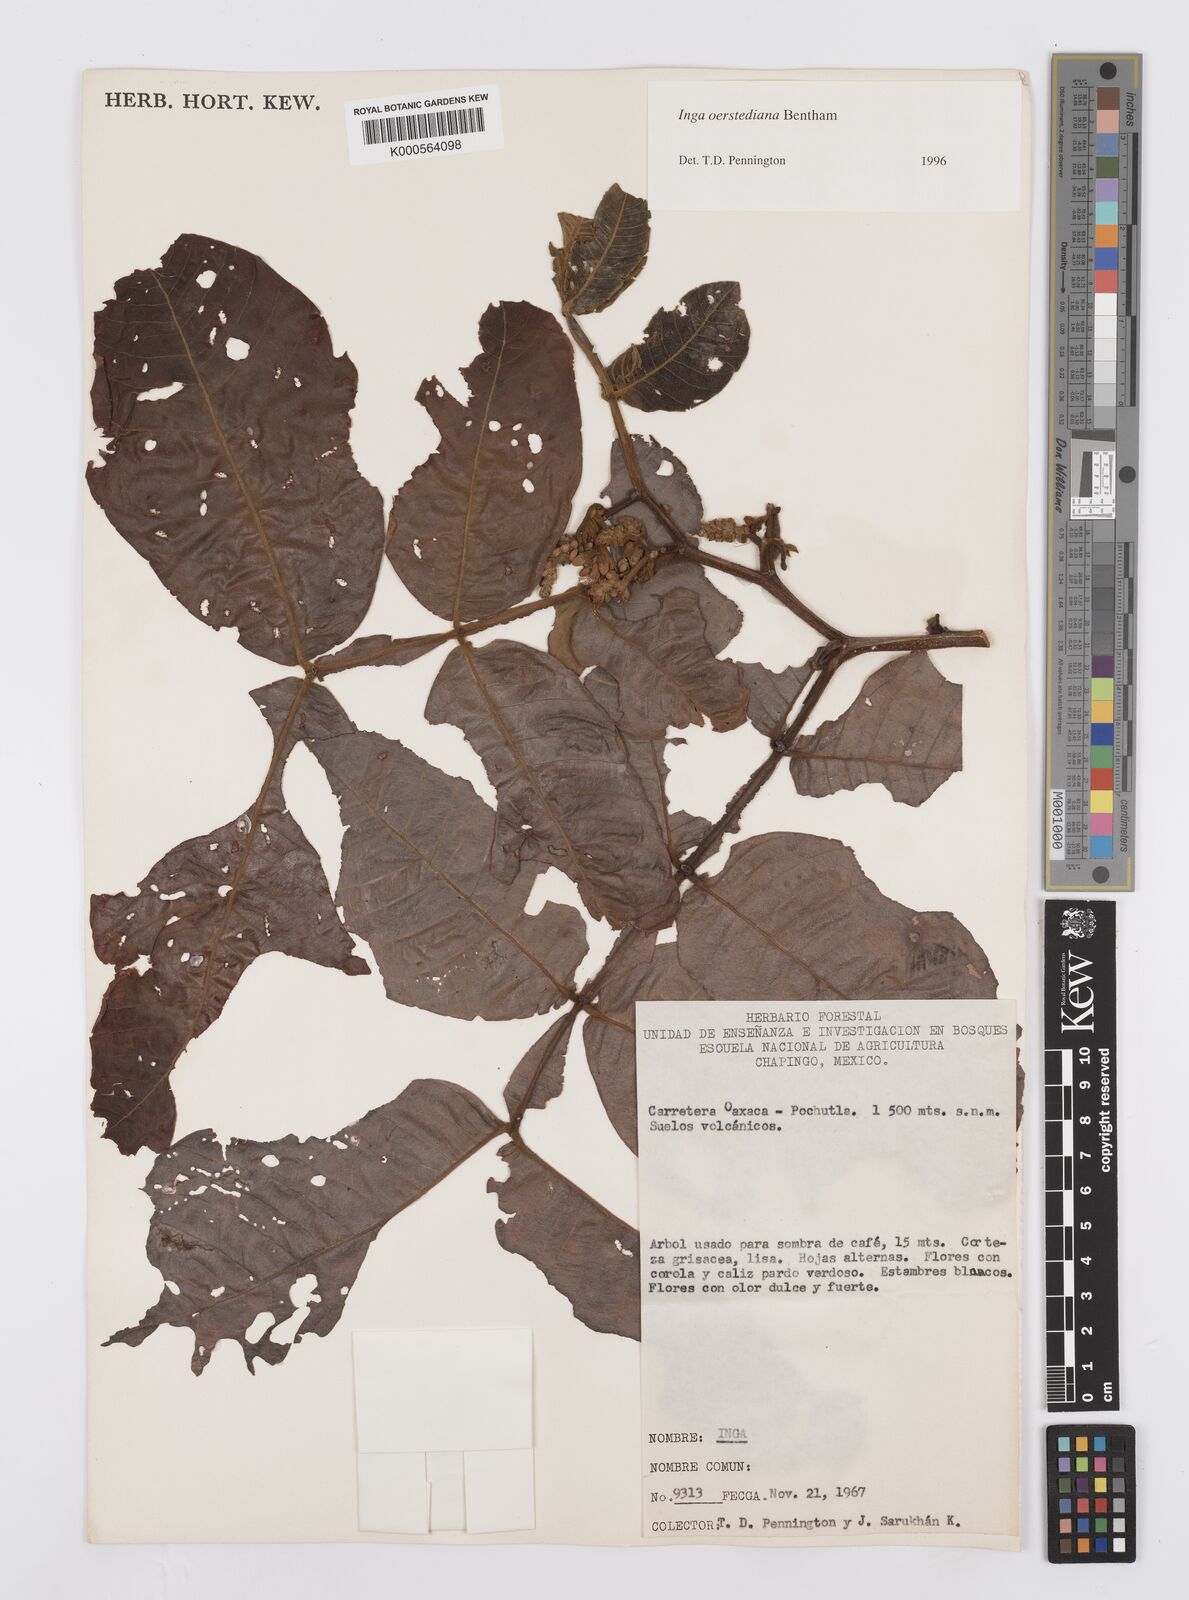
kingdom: Plantae
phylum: Tracheophyta
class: Magnoliopsida
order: Fabales
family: Fabaceae
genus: Inga
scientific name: Inga oerstediana
